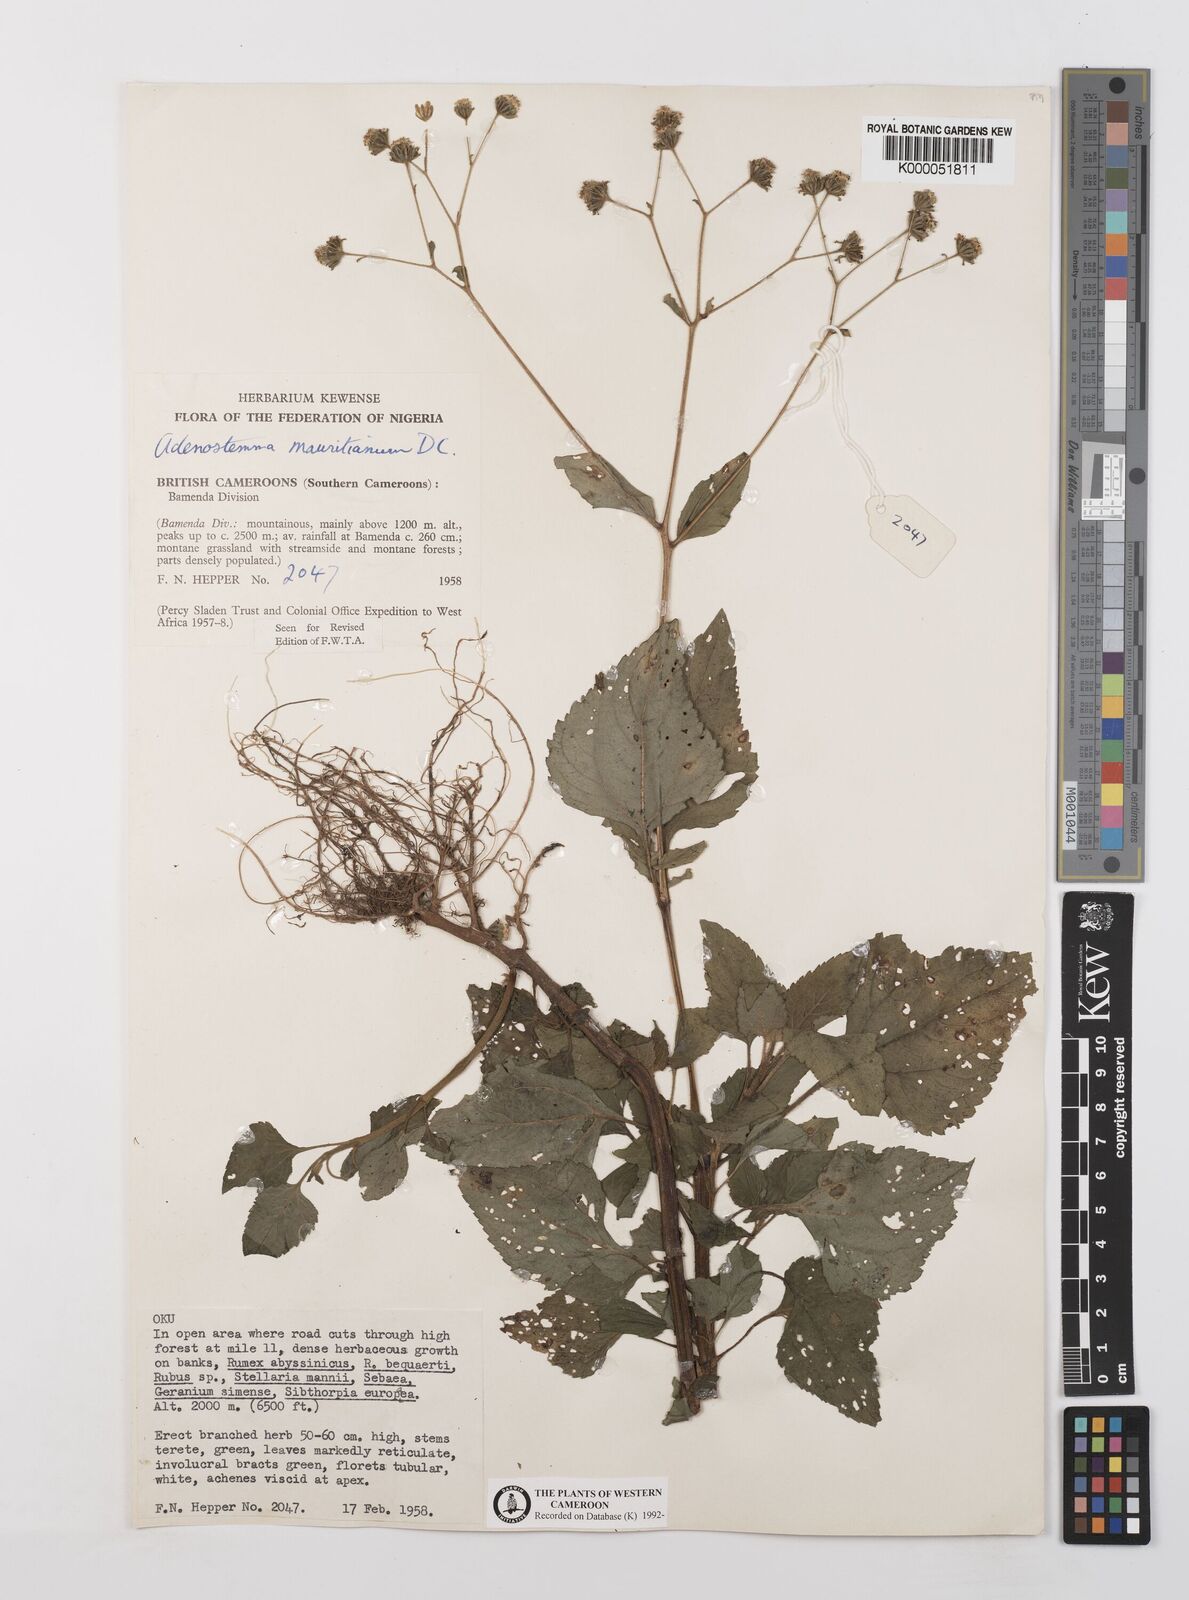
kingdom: Plantae
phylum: Tracheophyta
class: Magnoliopsida
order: Asterales
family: Asteraceae
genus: Adenostemma
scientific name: Adenostemma mauritianum
